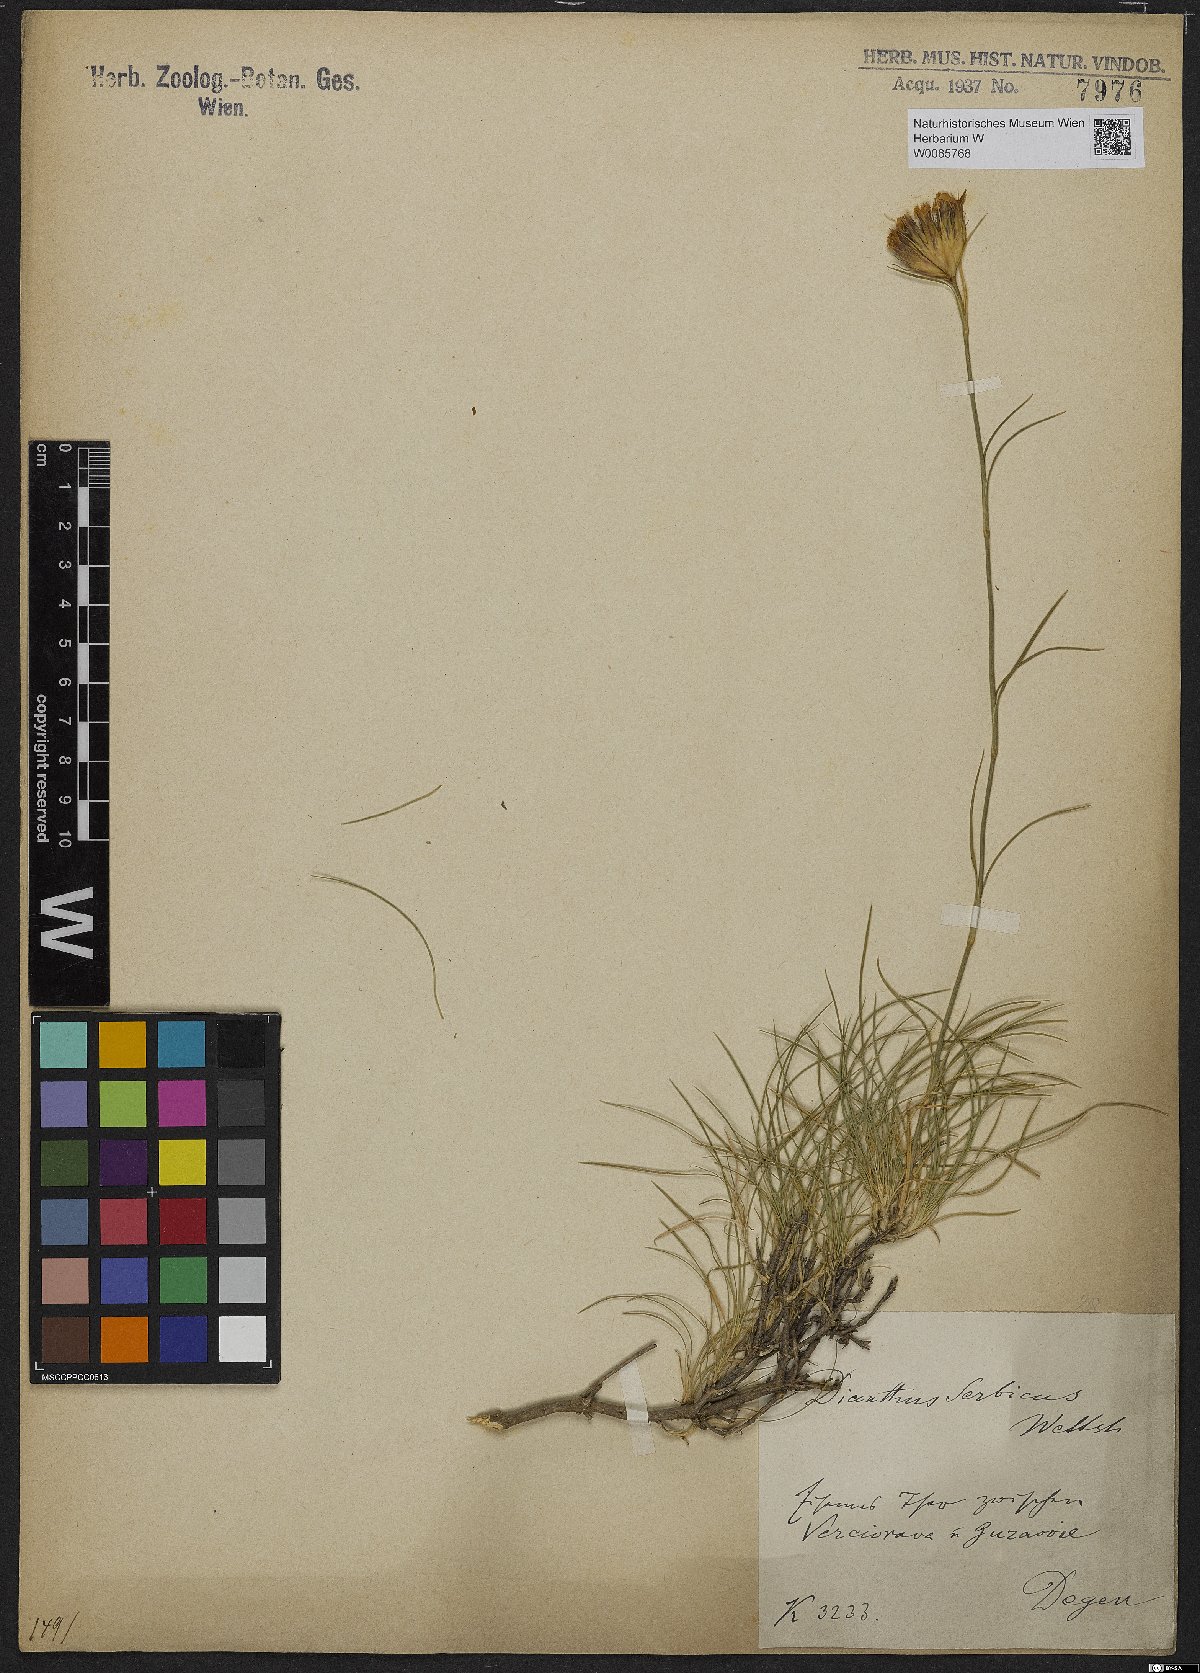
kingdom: Plantae
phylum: Tracheophyta
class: Magnoliopsida
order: Caryophyllales
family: Caryophyllaceae
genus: Dianthus
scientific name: Dianthus pinifolius
